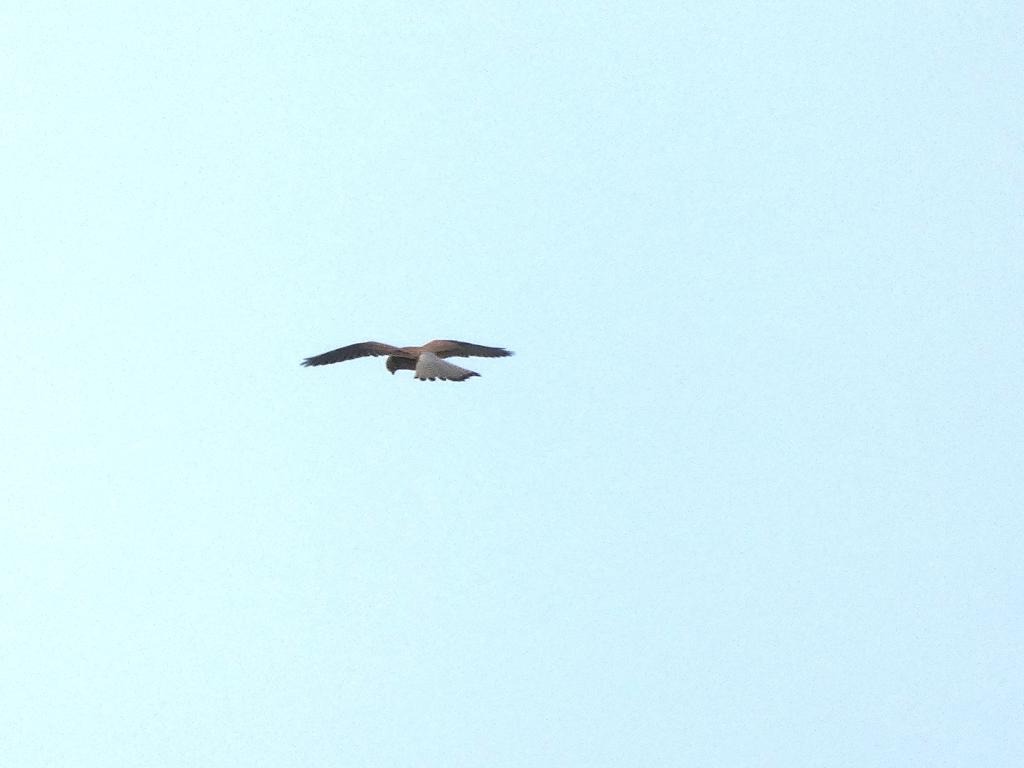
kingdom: Animalia
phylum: Chordata
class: Aves
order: Falconiformes
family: Falconidae
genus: Falco
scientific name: Falco tinnunculus
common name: Tårnfalk
